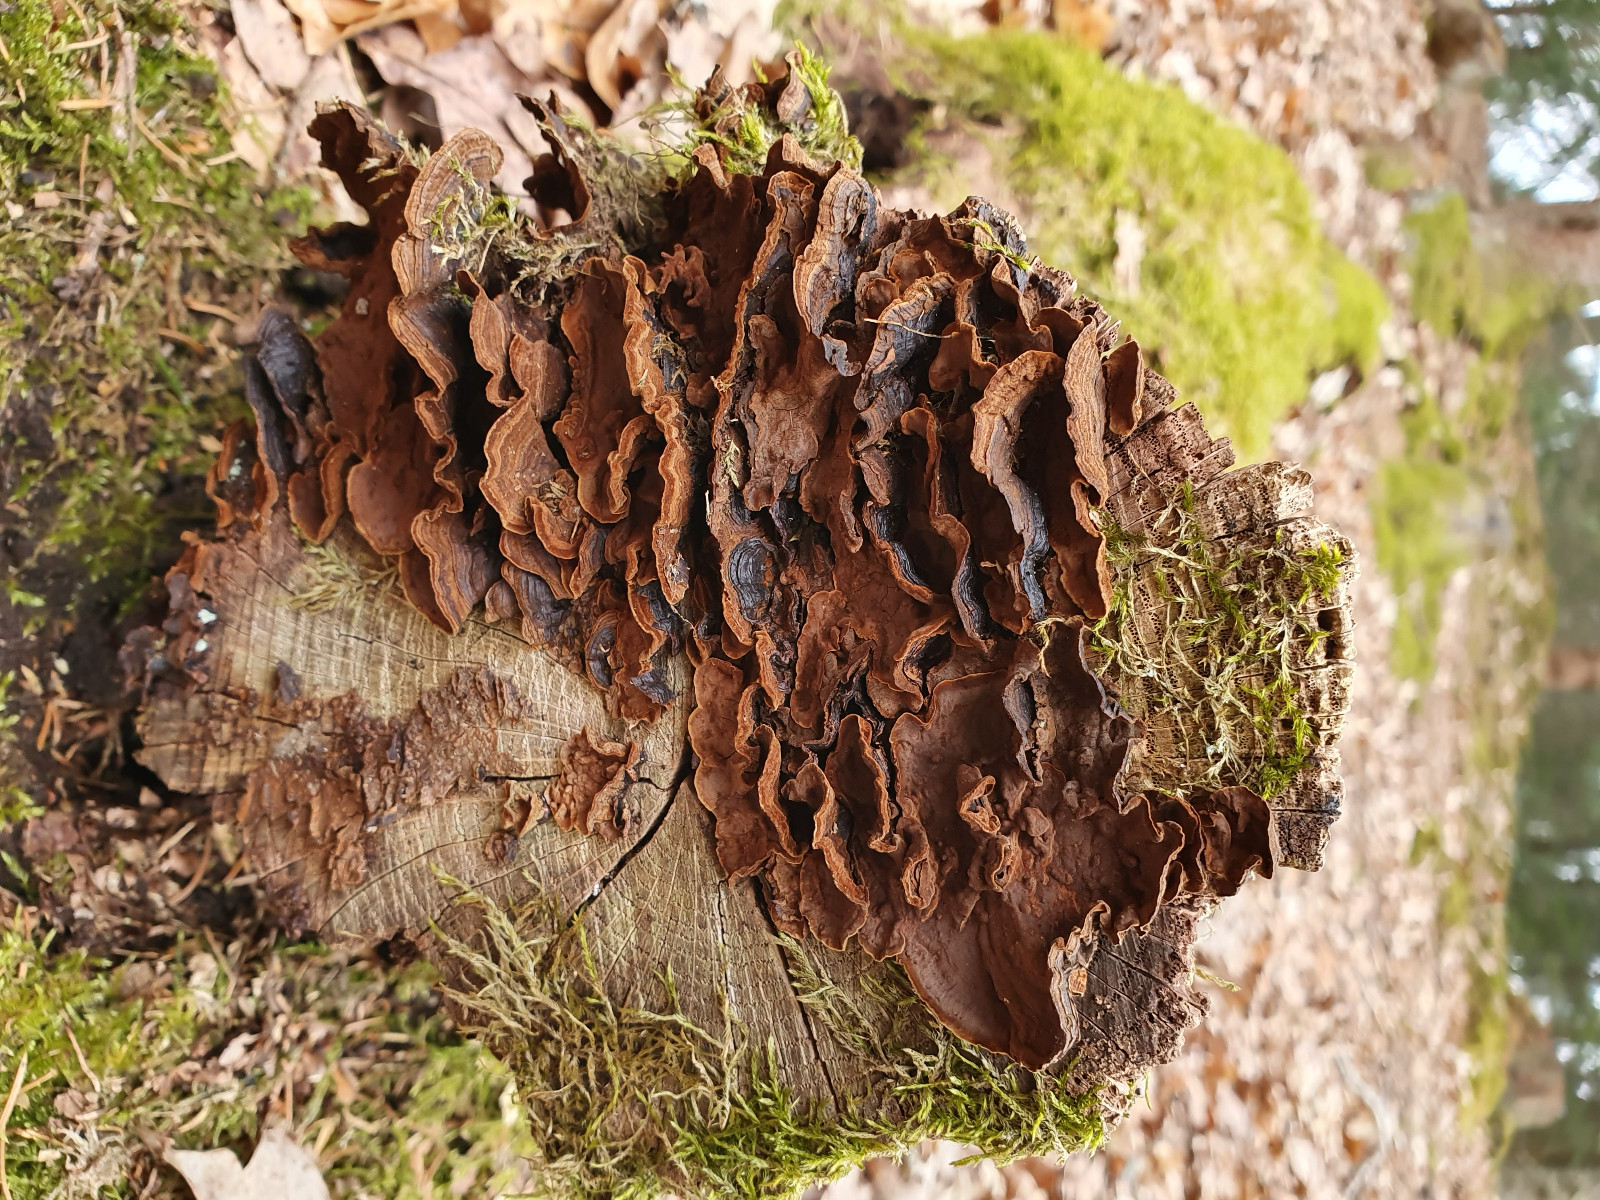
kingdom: Fungi
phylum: Basidiomycota
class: Agaricomycetes
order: Hymenochaetales
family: Hymenochaetaceae
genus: Hymenochaete
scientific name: Hymenochaete rubiginosa
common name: stiv ruslædersvamp
